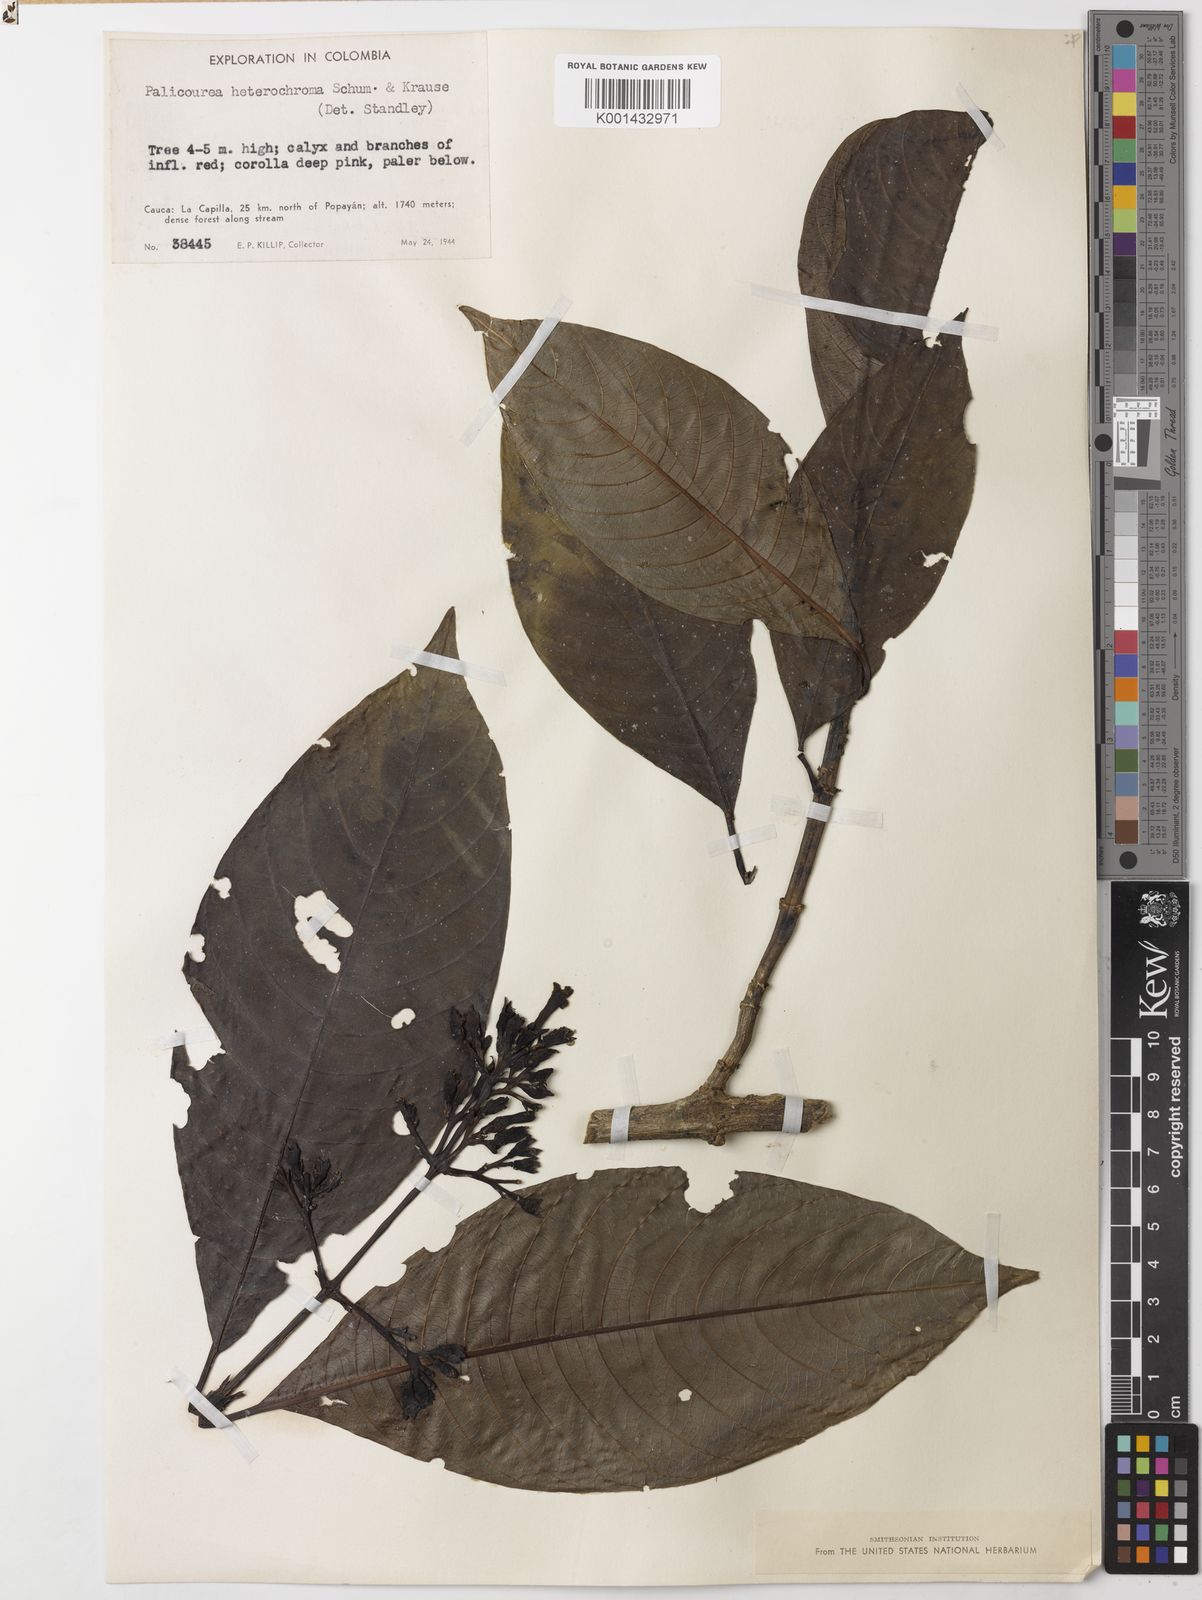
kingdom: Plantae
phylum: Tracheophyta
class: Magnoliopsida
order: Gentianales
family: Rubiaceae
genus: Palicourea
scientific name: Palicourea heterochroma
